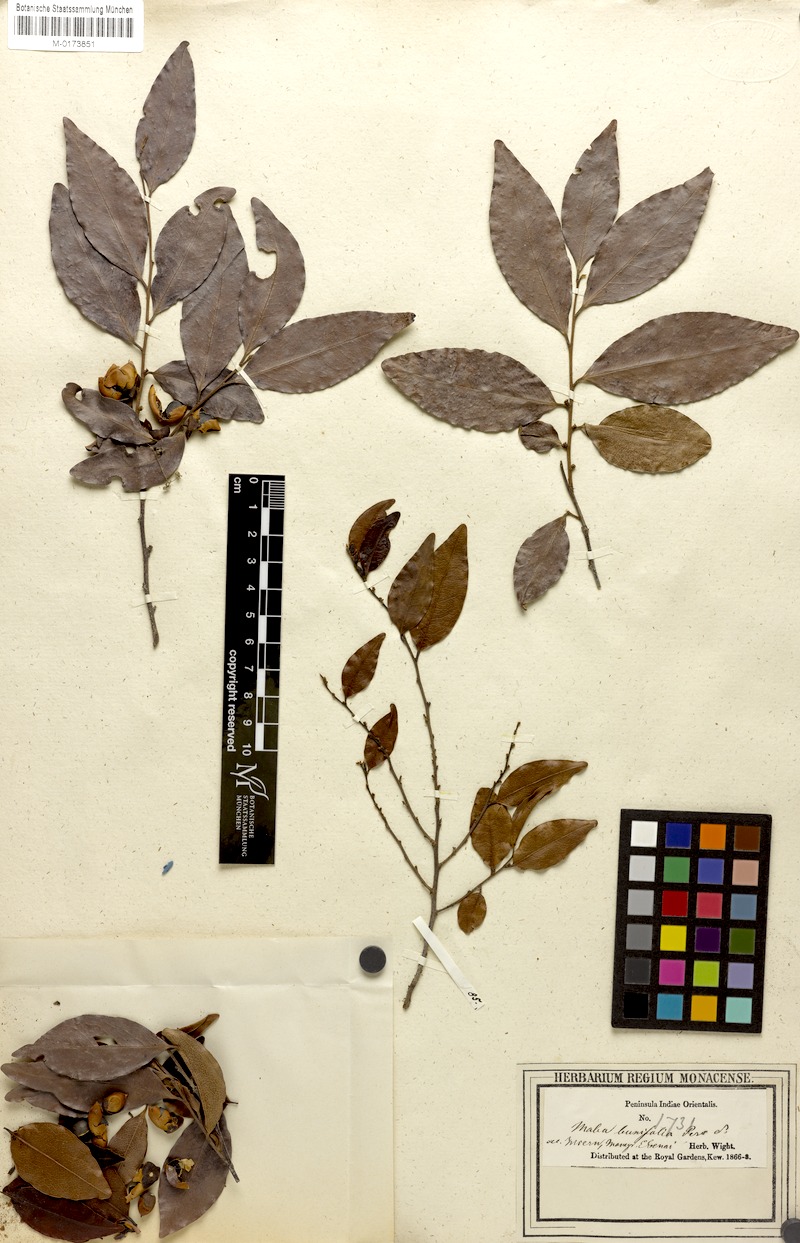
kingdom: Plantae
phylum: Tracheophyta
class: Magnoliopsida
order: Ericales
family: Ebenaceae
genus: Diospyros
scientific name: Diospyros ferrea
